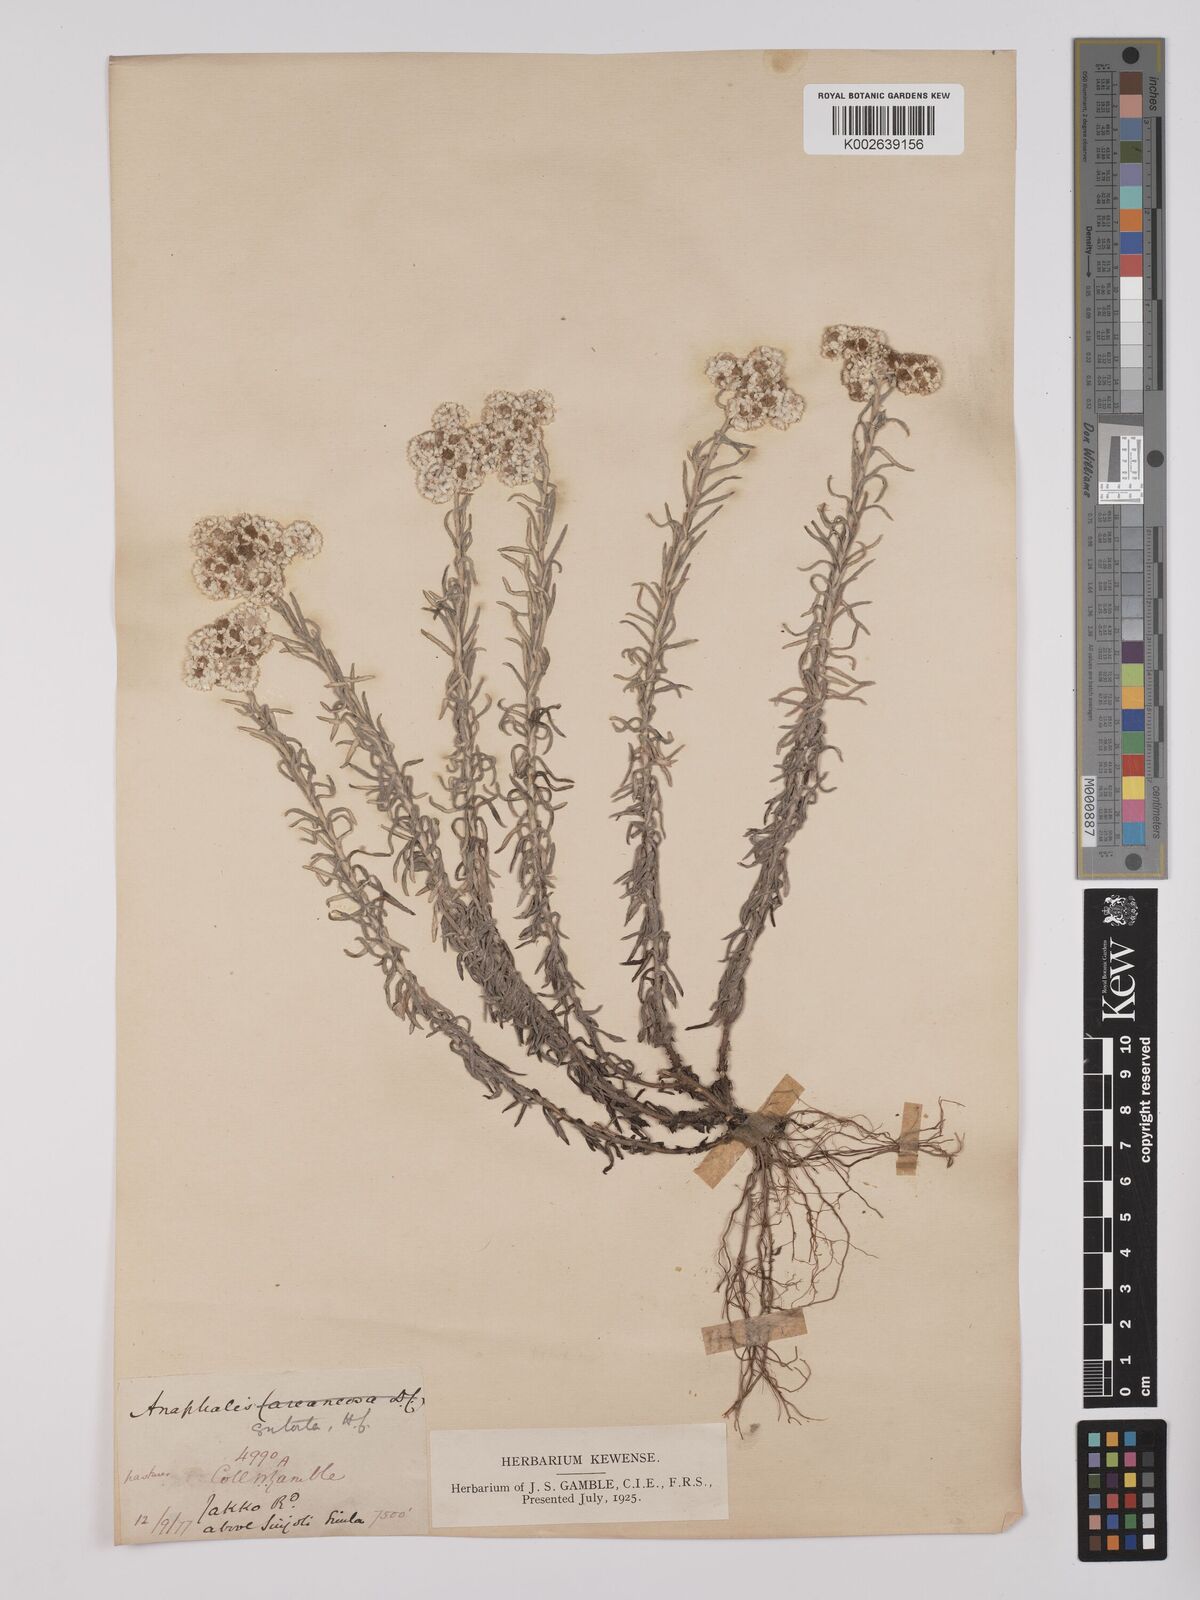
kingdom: Plantae
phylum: Tracheophyta
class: Magnoliopsida
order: Asterales
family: Asteraceae
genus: Anaphalis
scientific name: Anaphalis contorta
